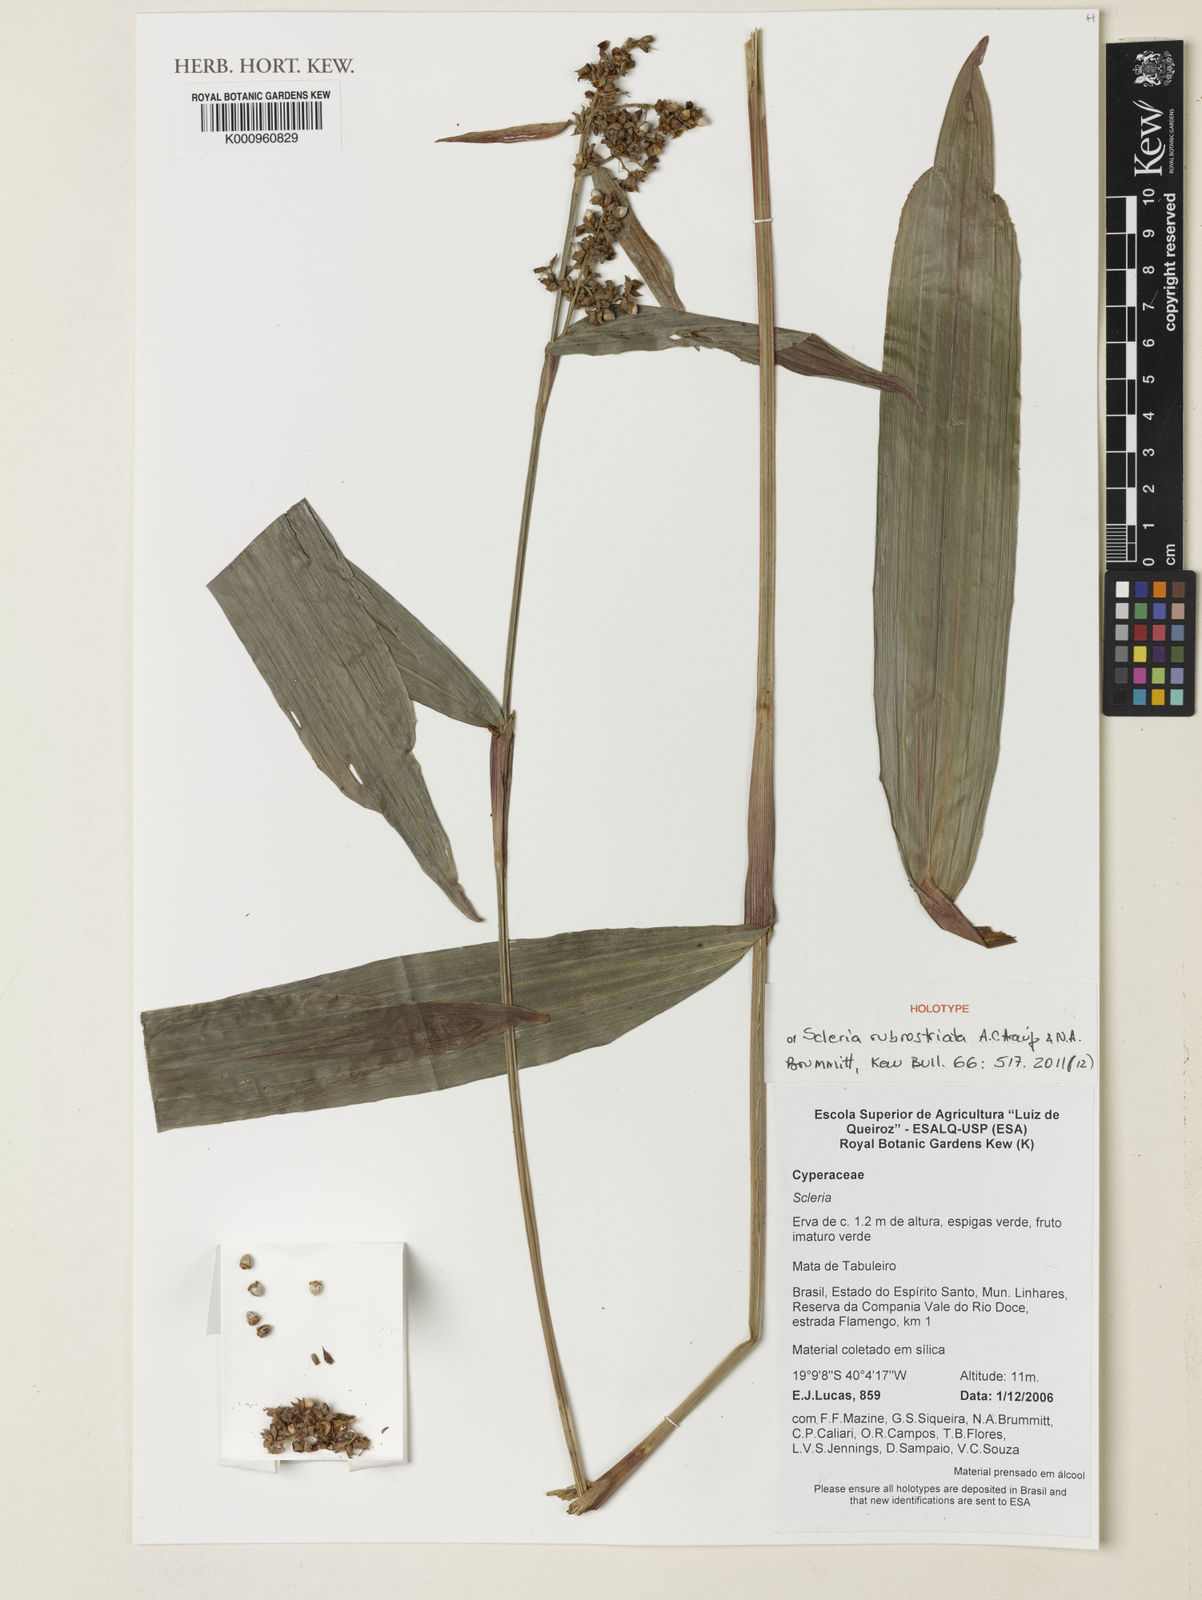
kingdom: Plantae
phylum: Tracheophyta
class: Liliopsida
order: Poales
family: Cyperaceae
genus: Scleria
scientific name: Scleria
